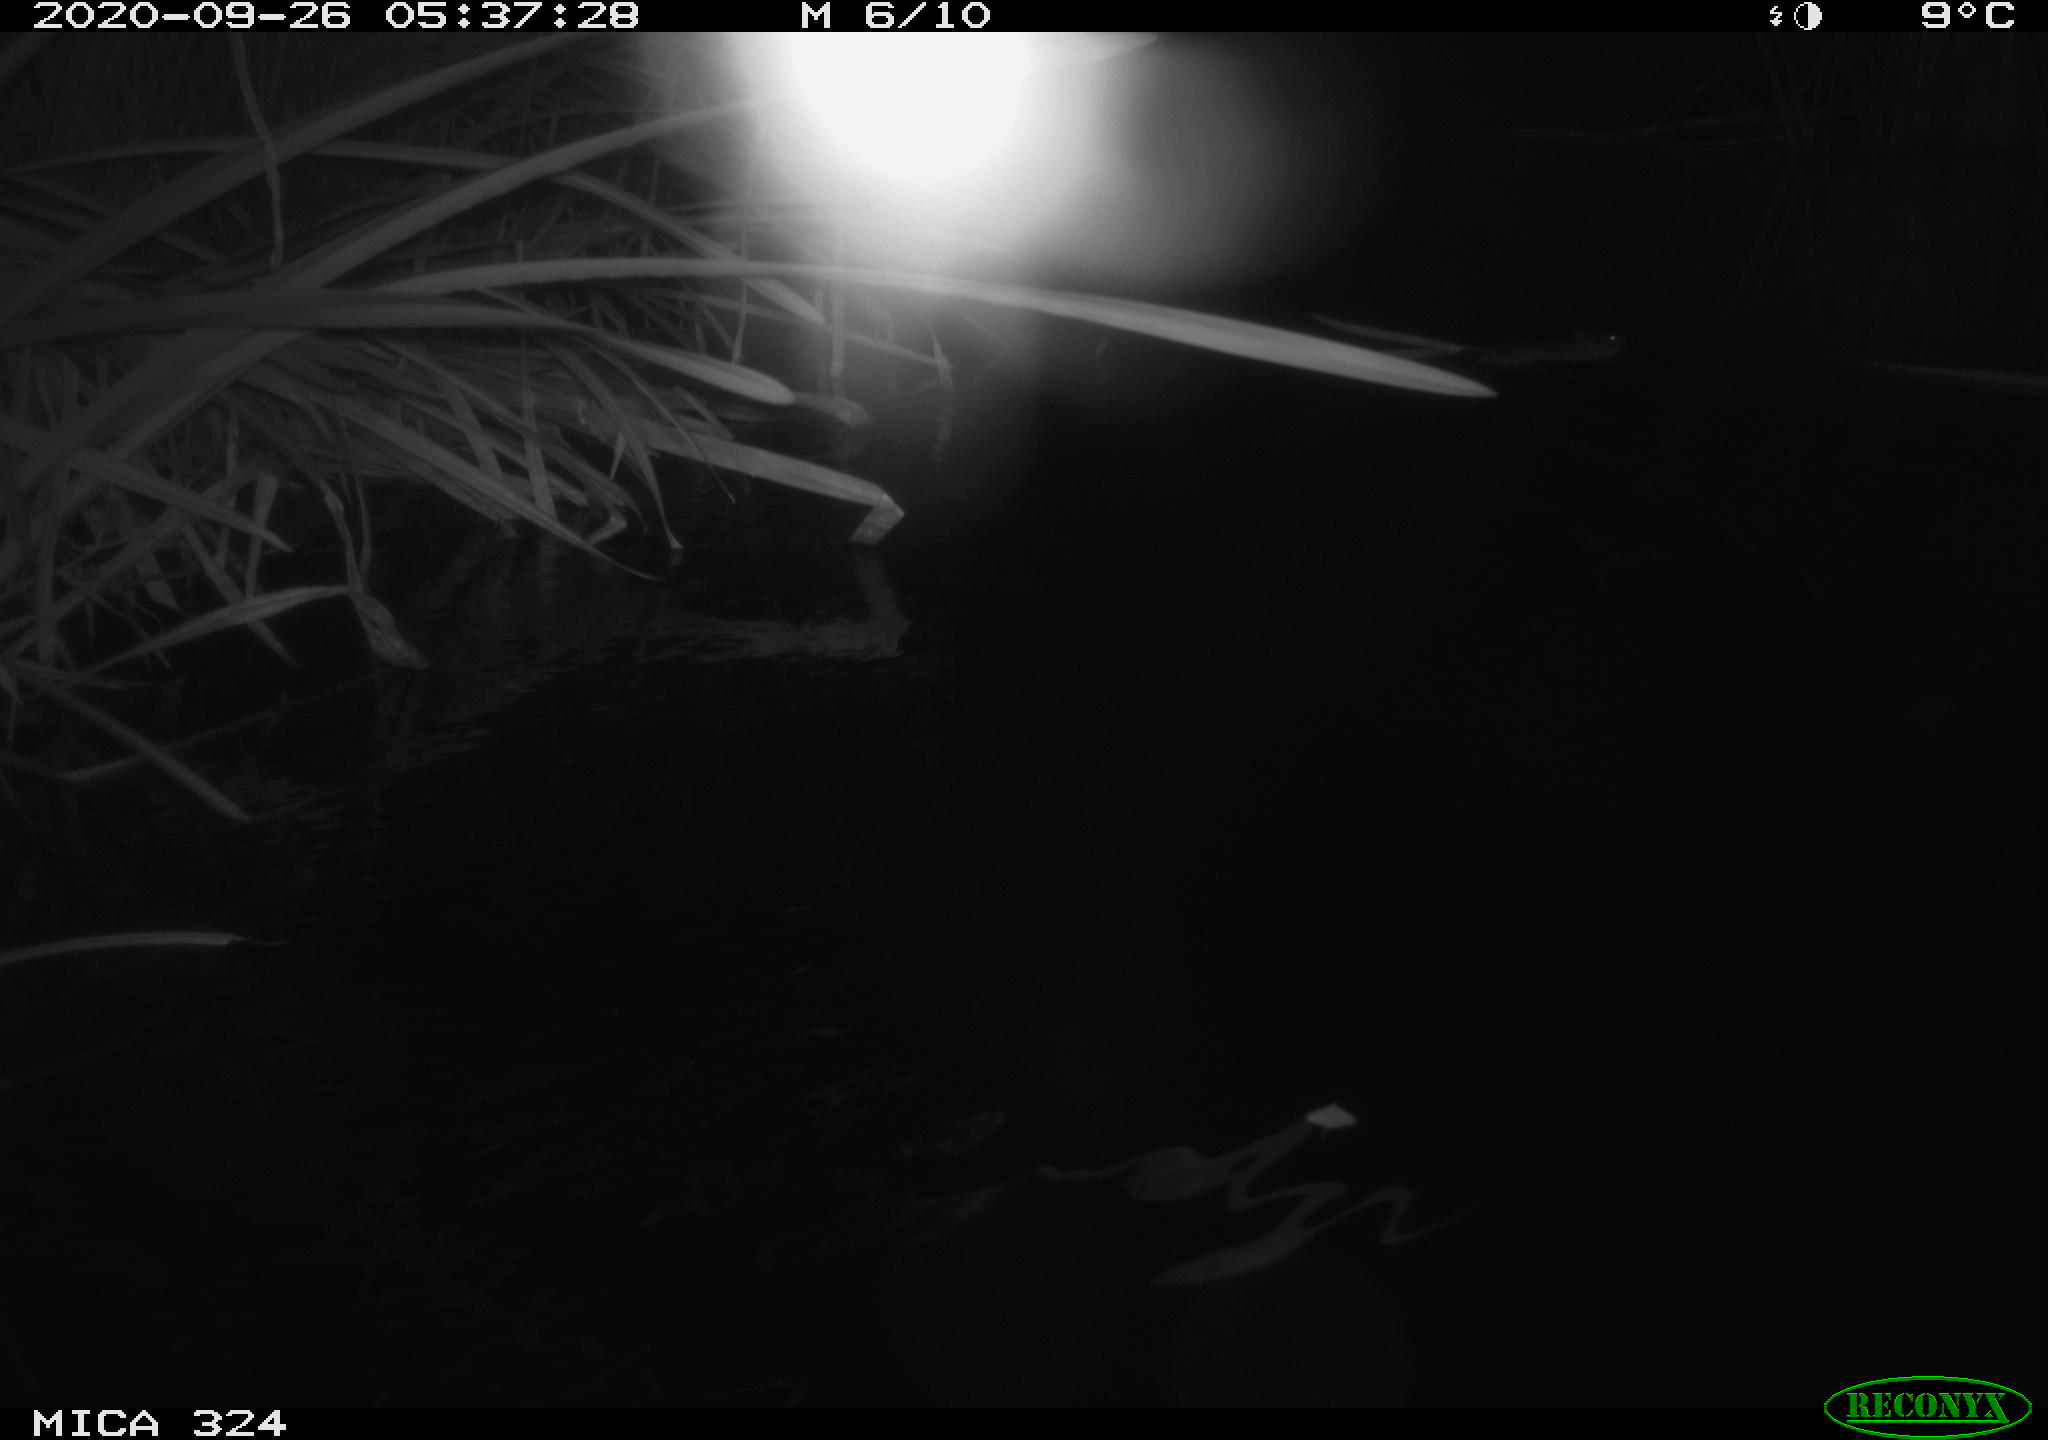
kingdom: Animalia
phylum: Chordata
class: Mammalia
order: Rodentia
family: Cricetidae
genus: Ondatra
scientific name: Ondatra zibethicus
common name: Muskrat
